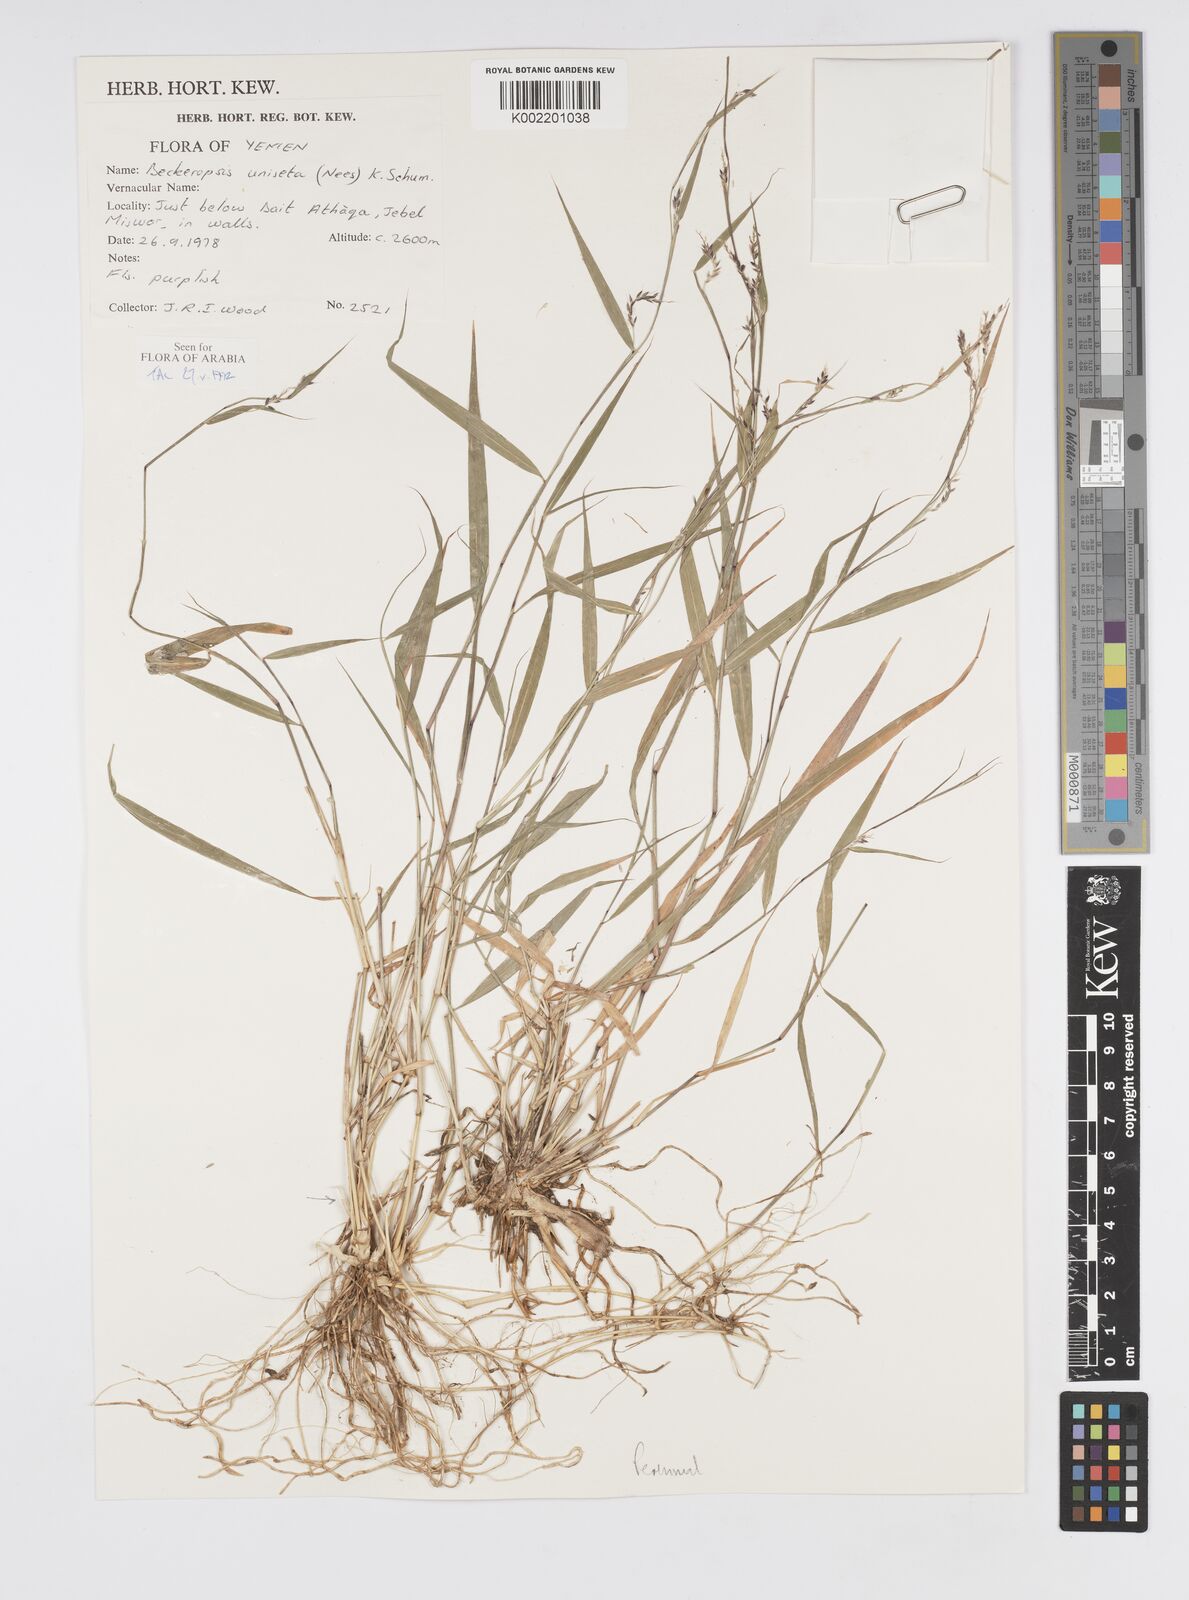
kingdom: Plantae
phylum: Tracheophyta
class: Liliopsida
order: Poales
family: Poaceae
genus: Cenchrus
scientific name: Cenchrus unisetus
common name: Natal grass
